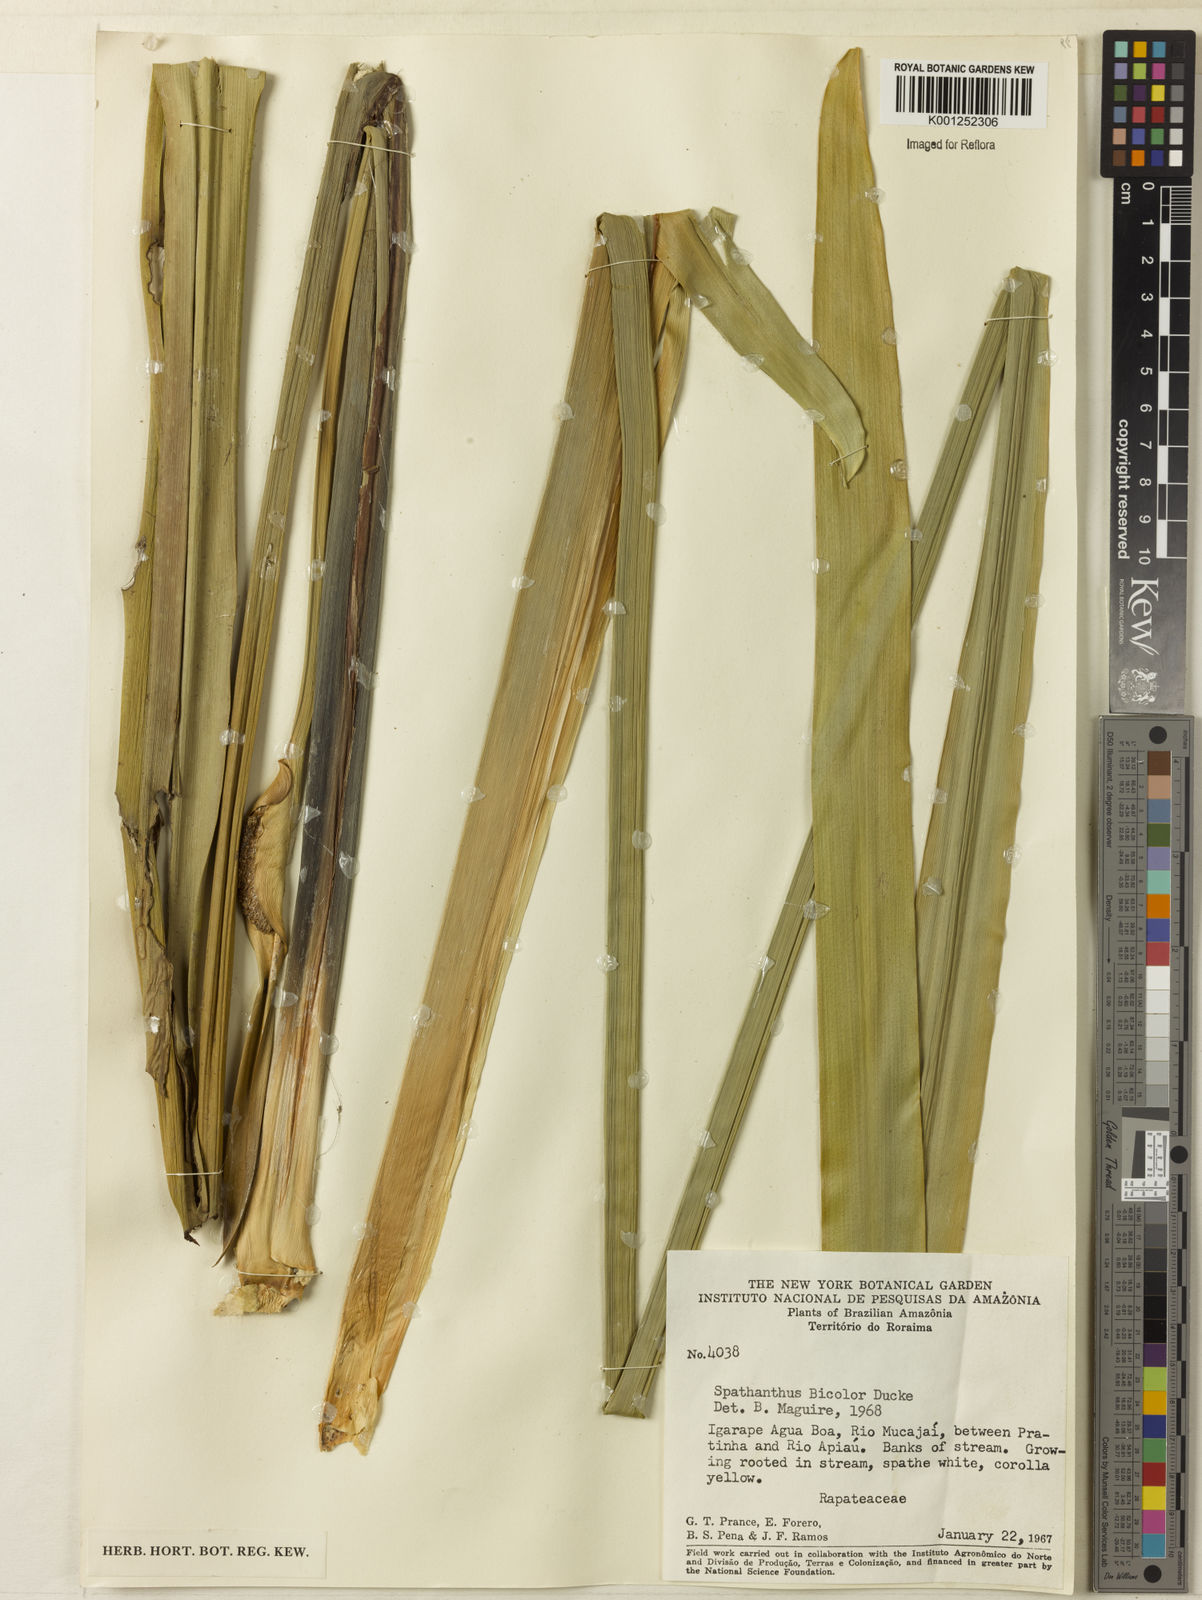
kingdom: Plantae
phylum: Tracheophyta
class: Liliopsida
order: Poales
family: Rapateaceae
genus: Spathanthus
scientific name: Spathanthus bicolor
